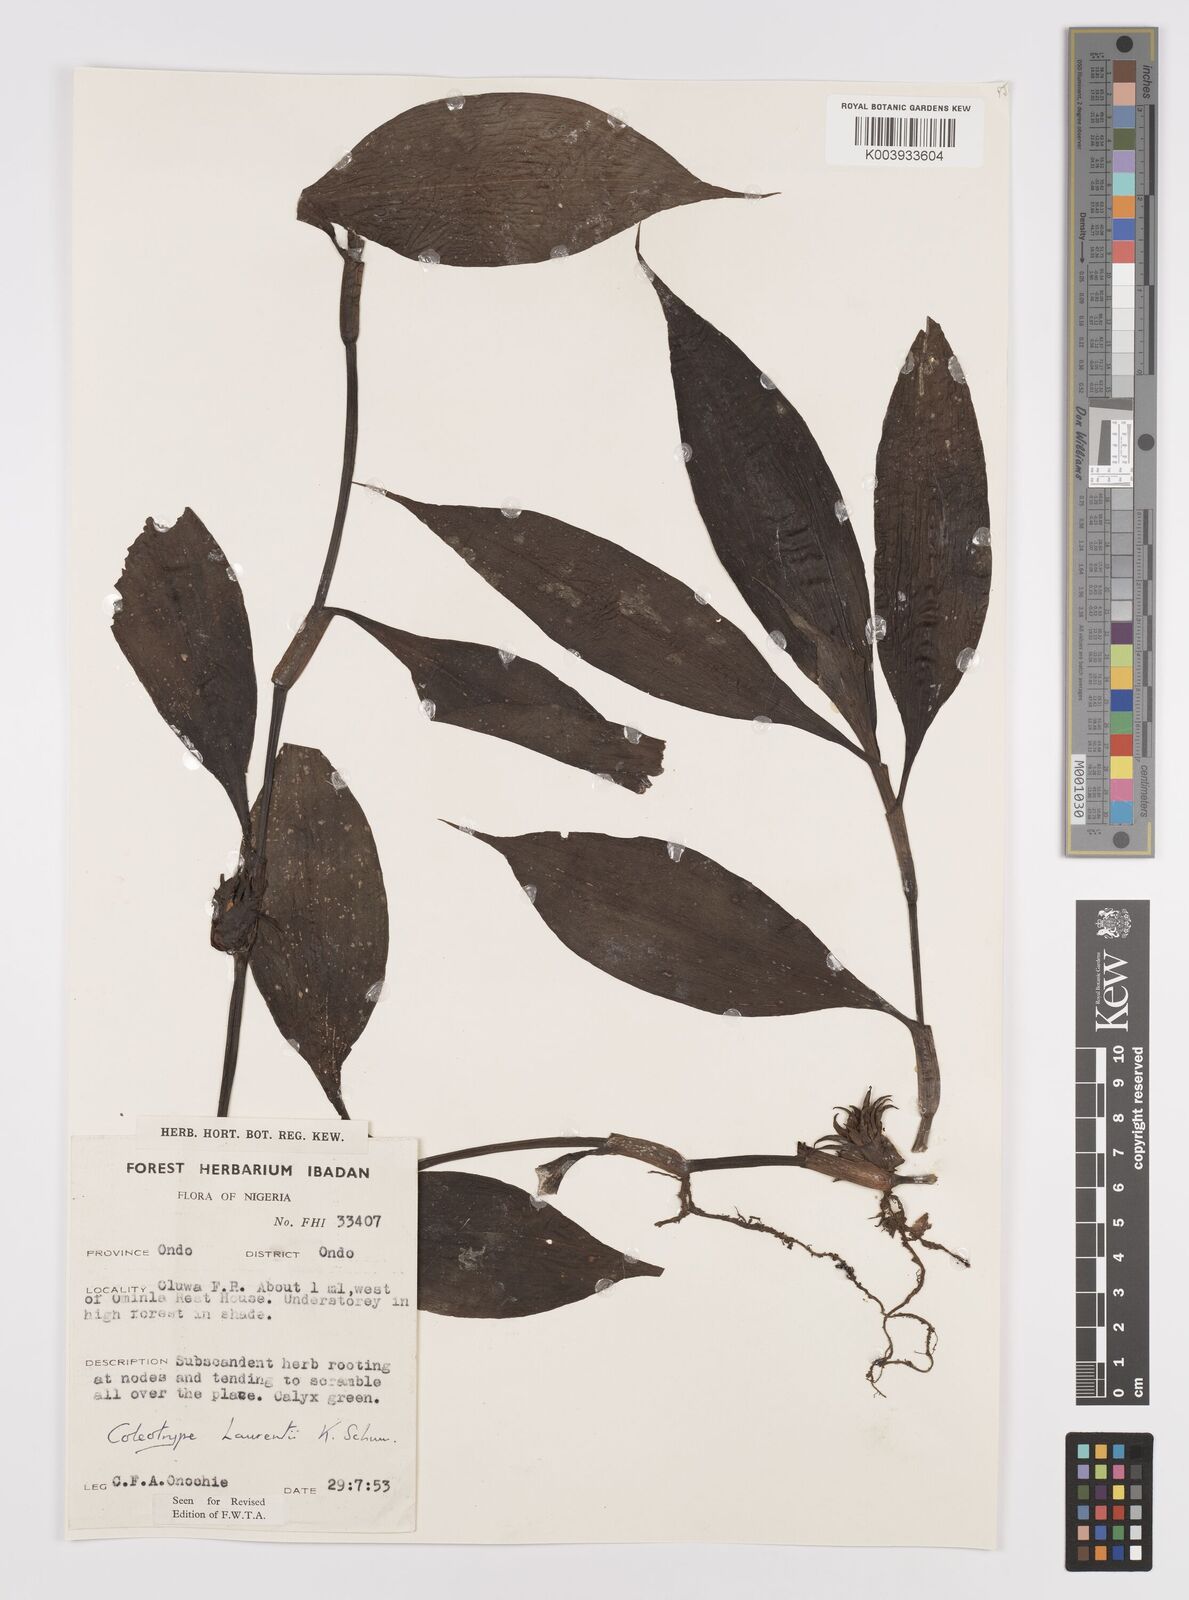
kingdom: Plantae
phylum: Tracheophyta
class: Liliopsida
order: Commelinales
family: Commelinaceae
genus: Coleotrype
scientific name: Coleotrype laurentii
